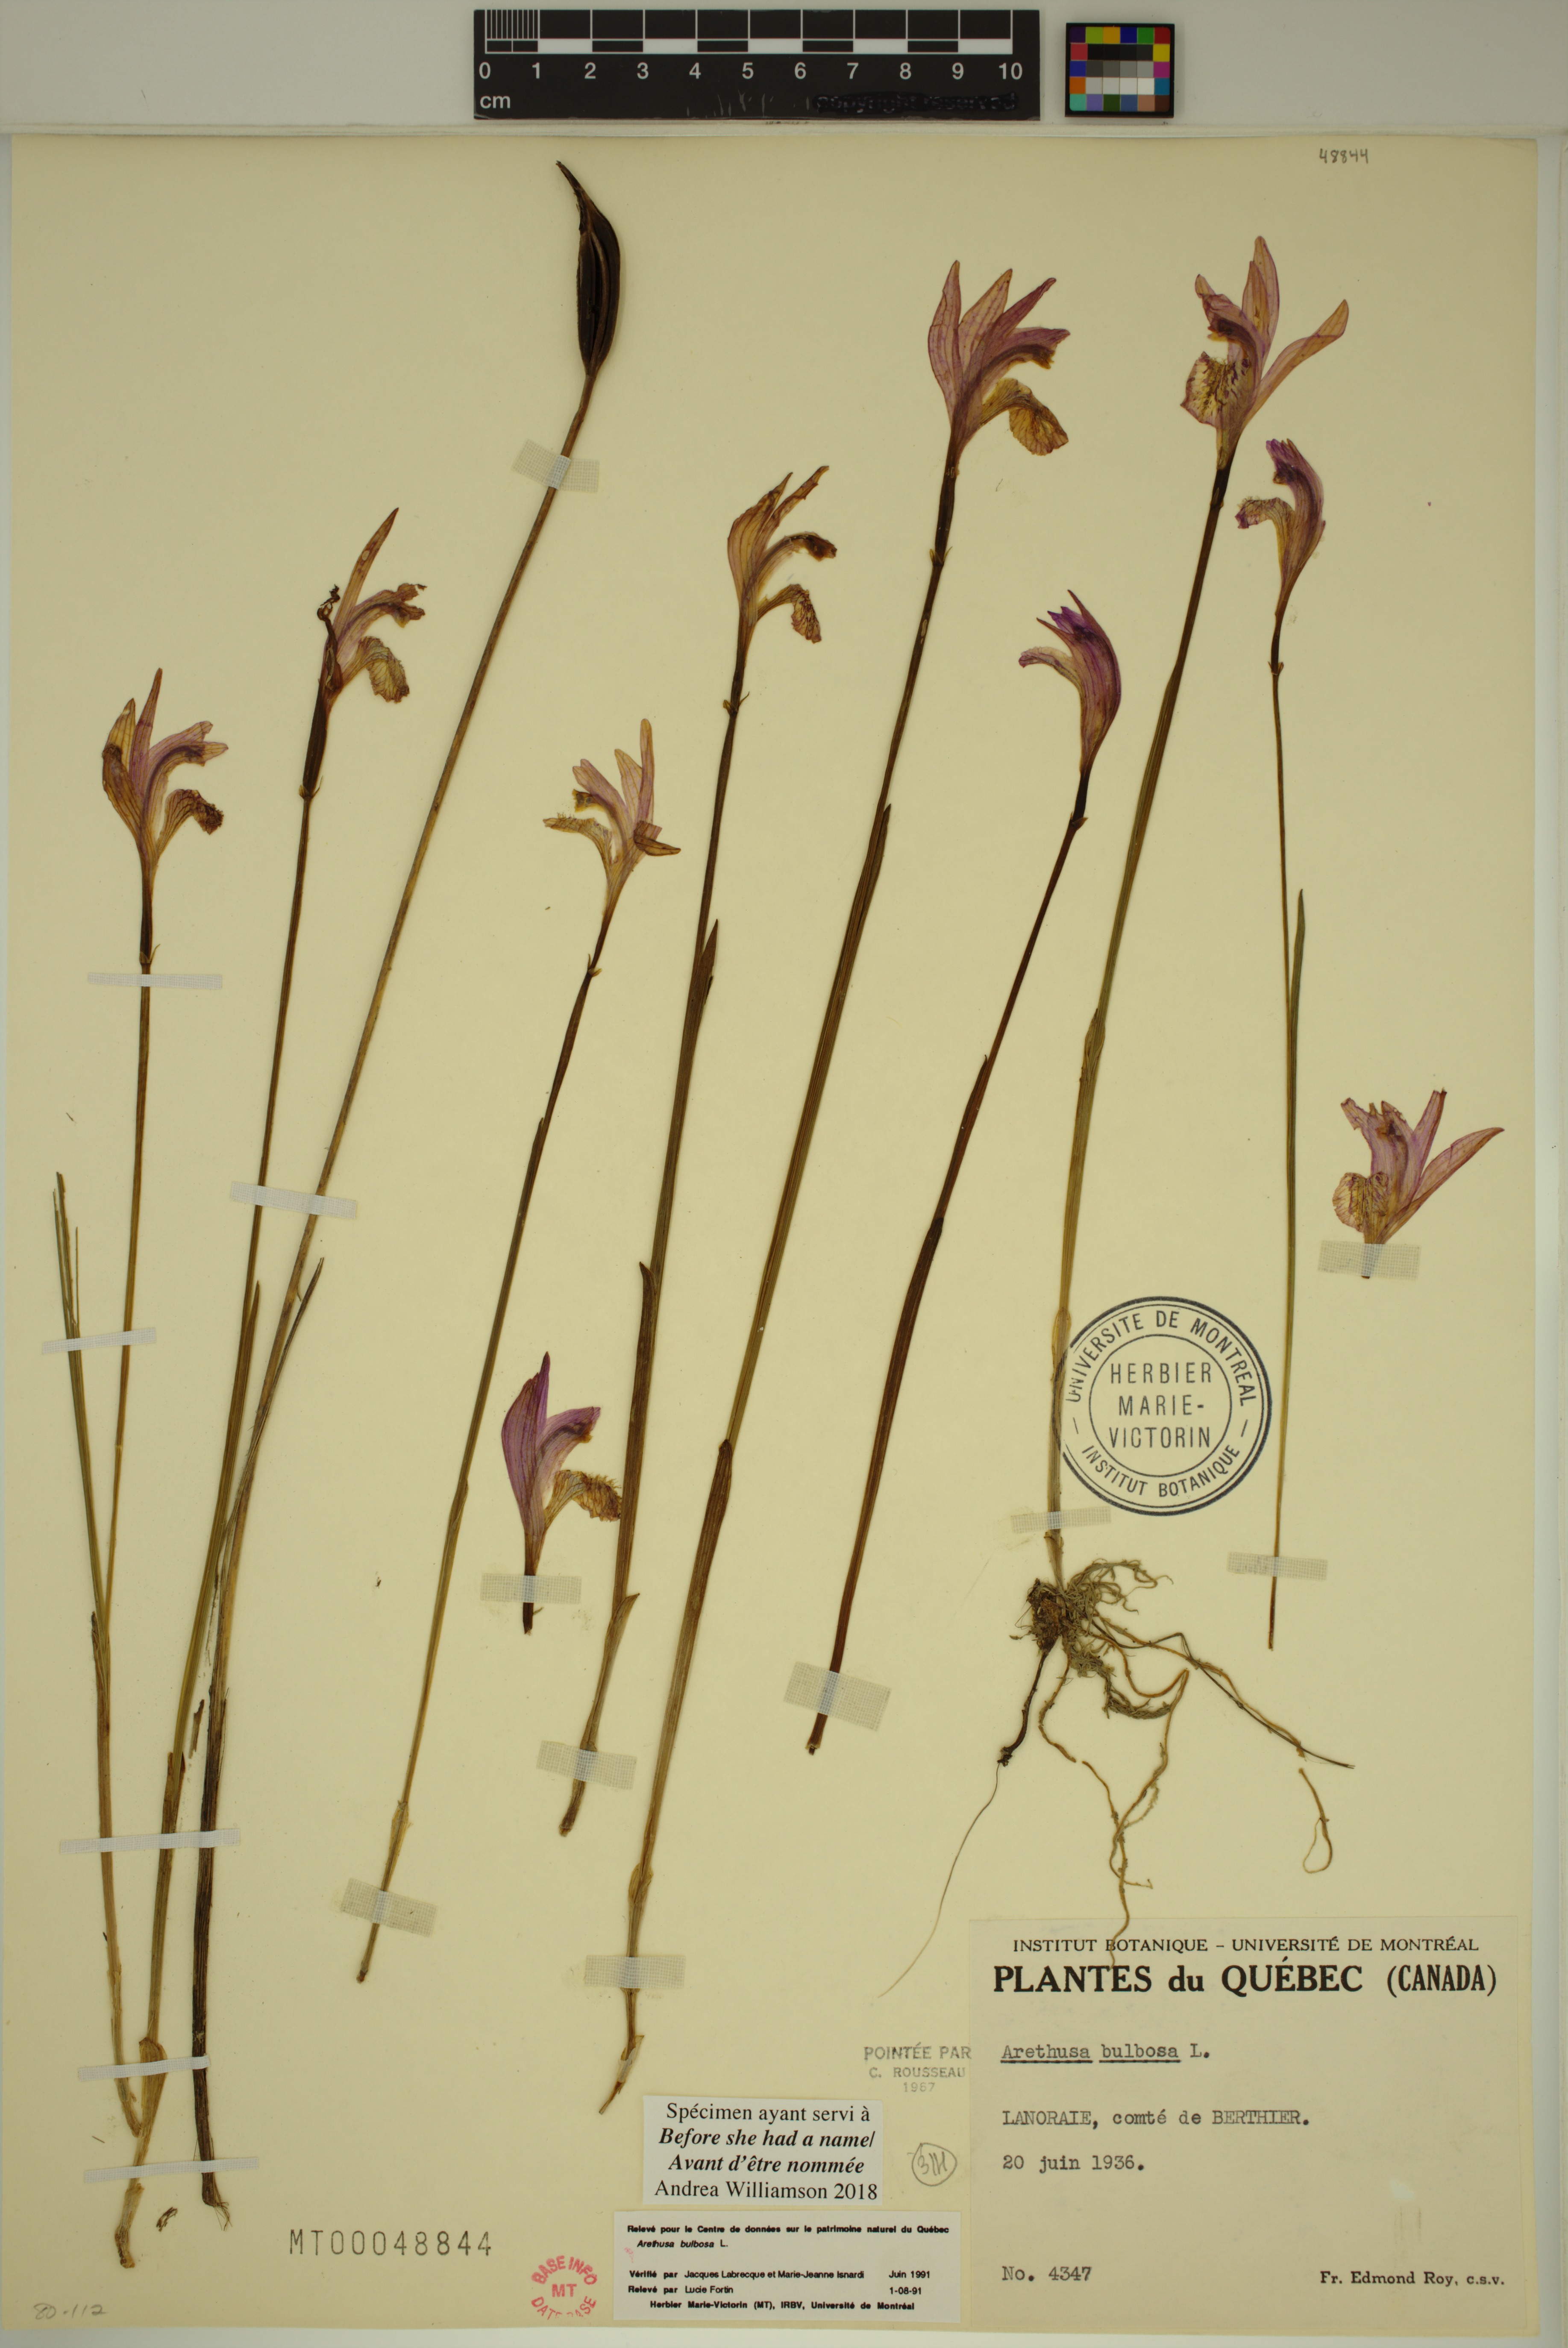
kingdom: Plantae
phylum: Tracheophyta
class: Liliopsida
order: Asparagales
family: Orchidaceae
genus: Arethusa
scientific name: Arethusa bulbosa
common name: Arethusa
